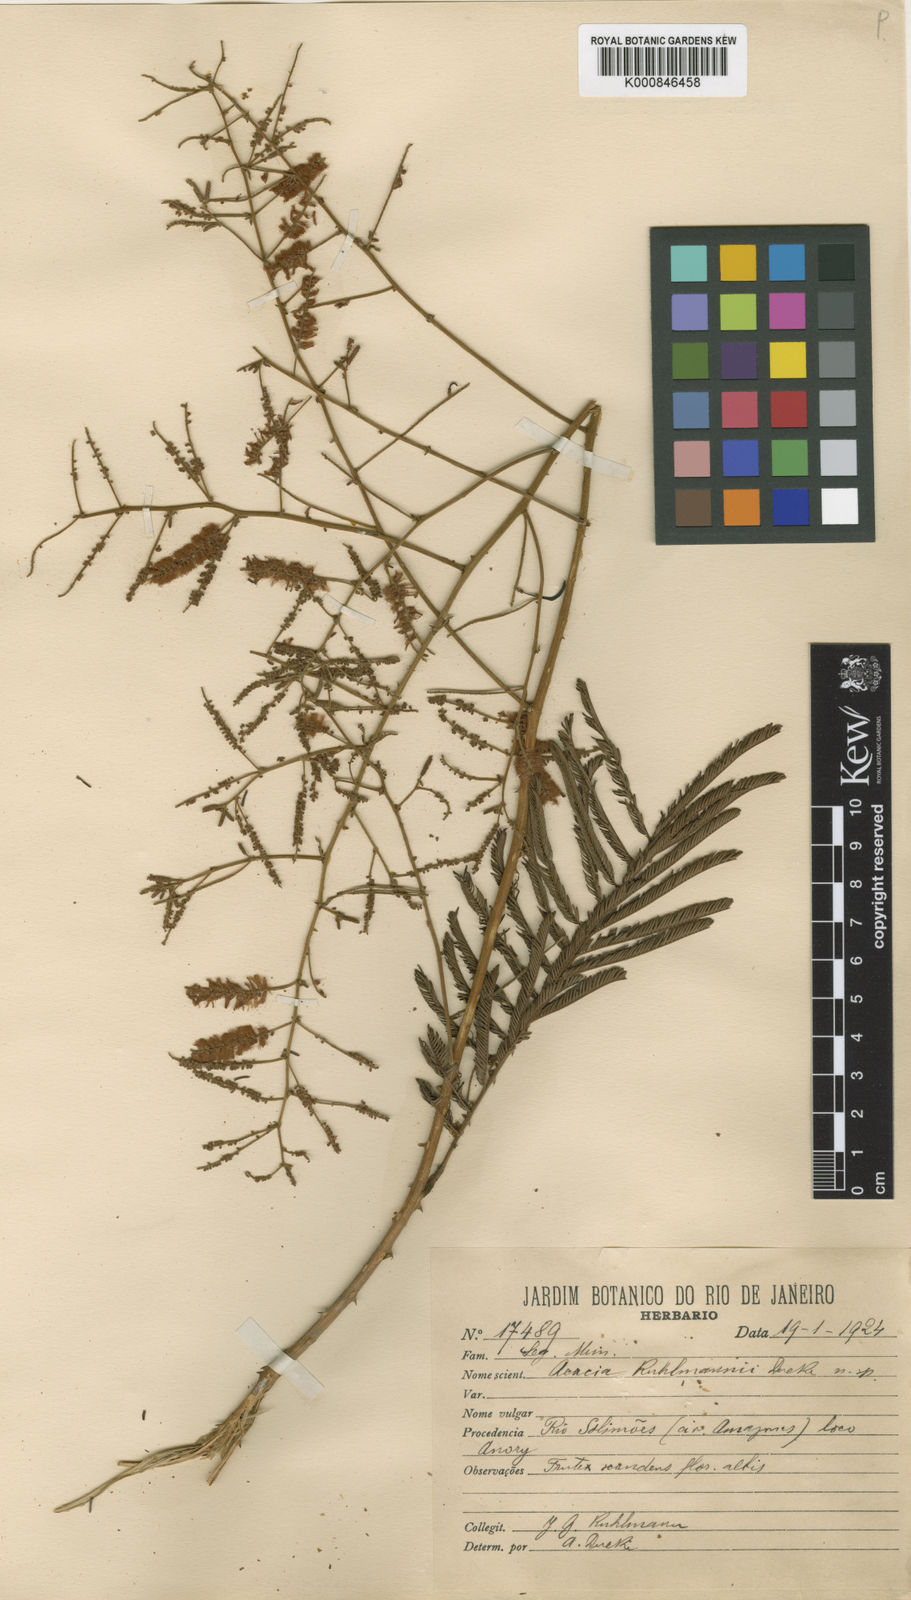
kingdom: Plantae
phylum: Tracheophyta
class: Magnoliopsida
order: Fabales
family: Fabaceae
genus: Senegalia
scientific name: Senegalia kuhlmannii
